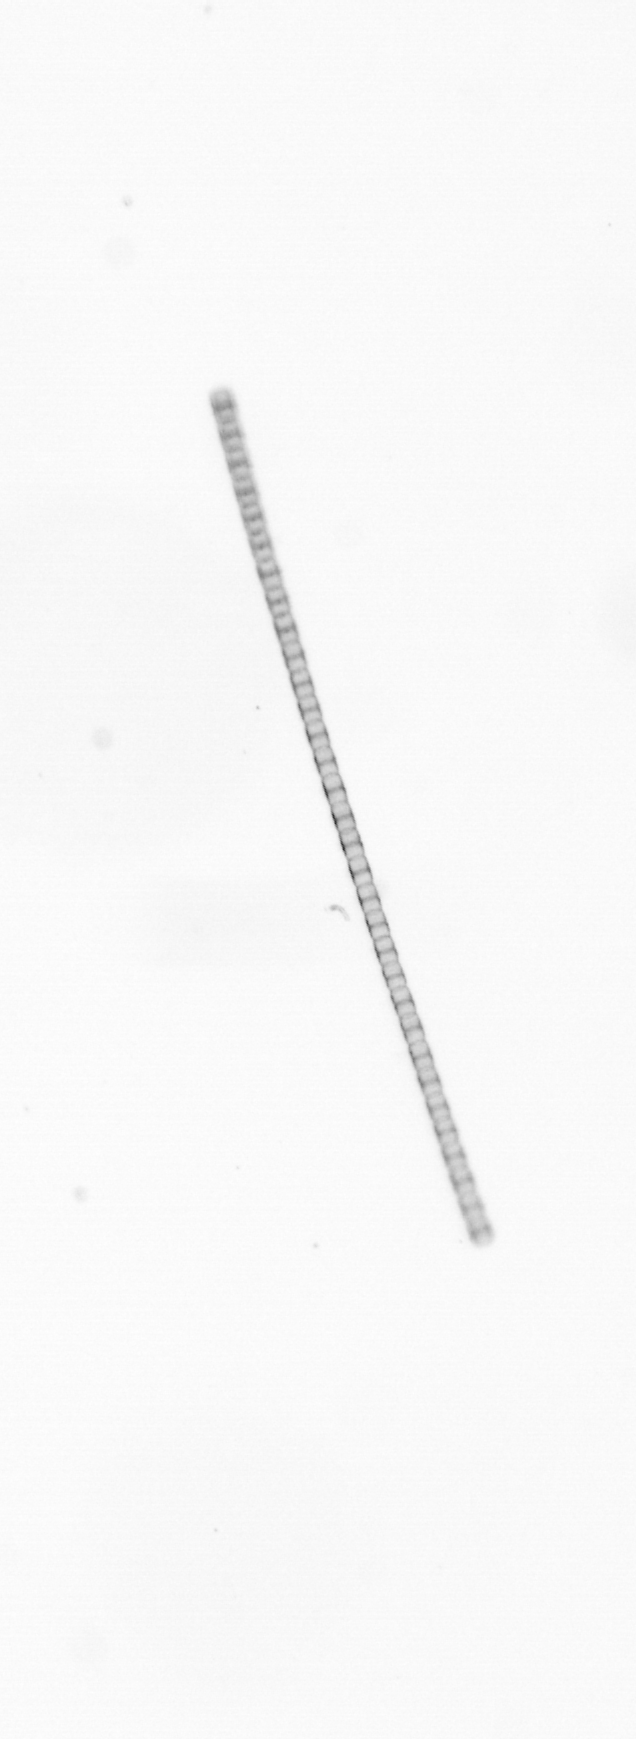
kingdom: Chromista
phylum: Ochrophyta
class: Bacillariophyceae
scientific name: Bacillariophyceae
